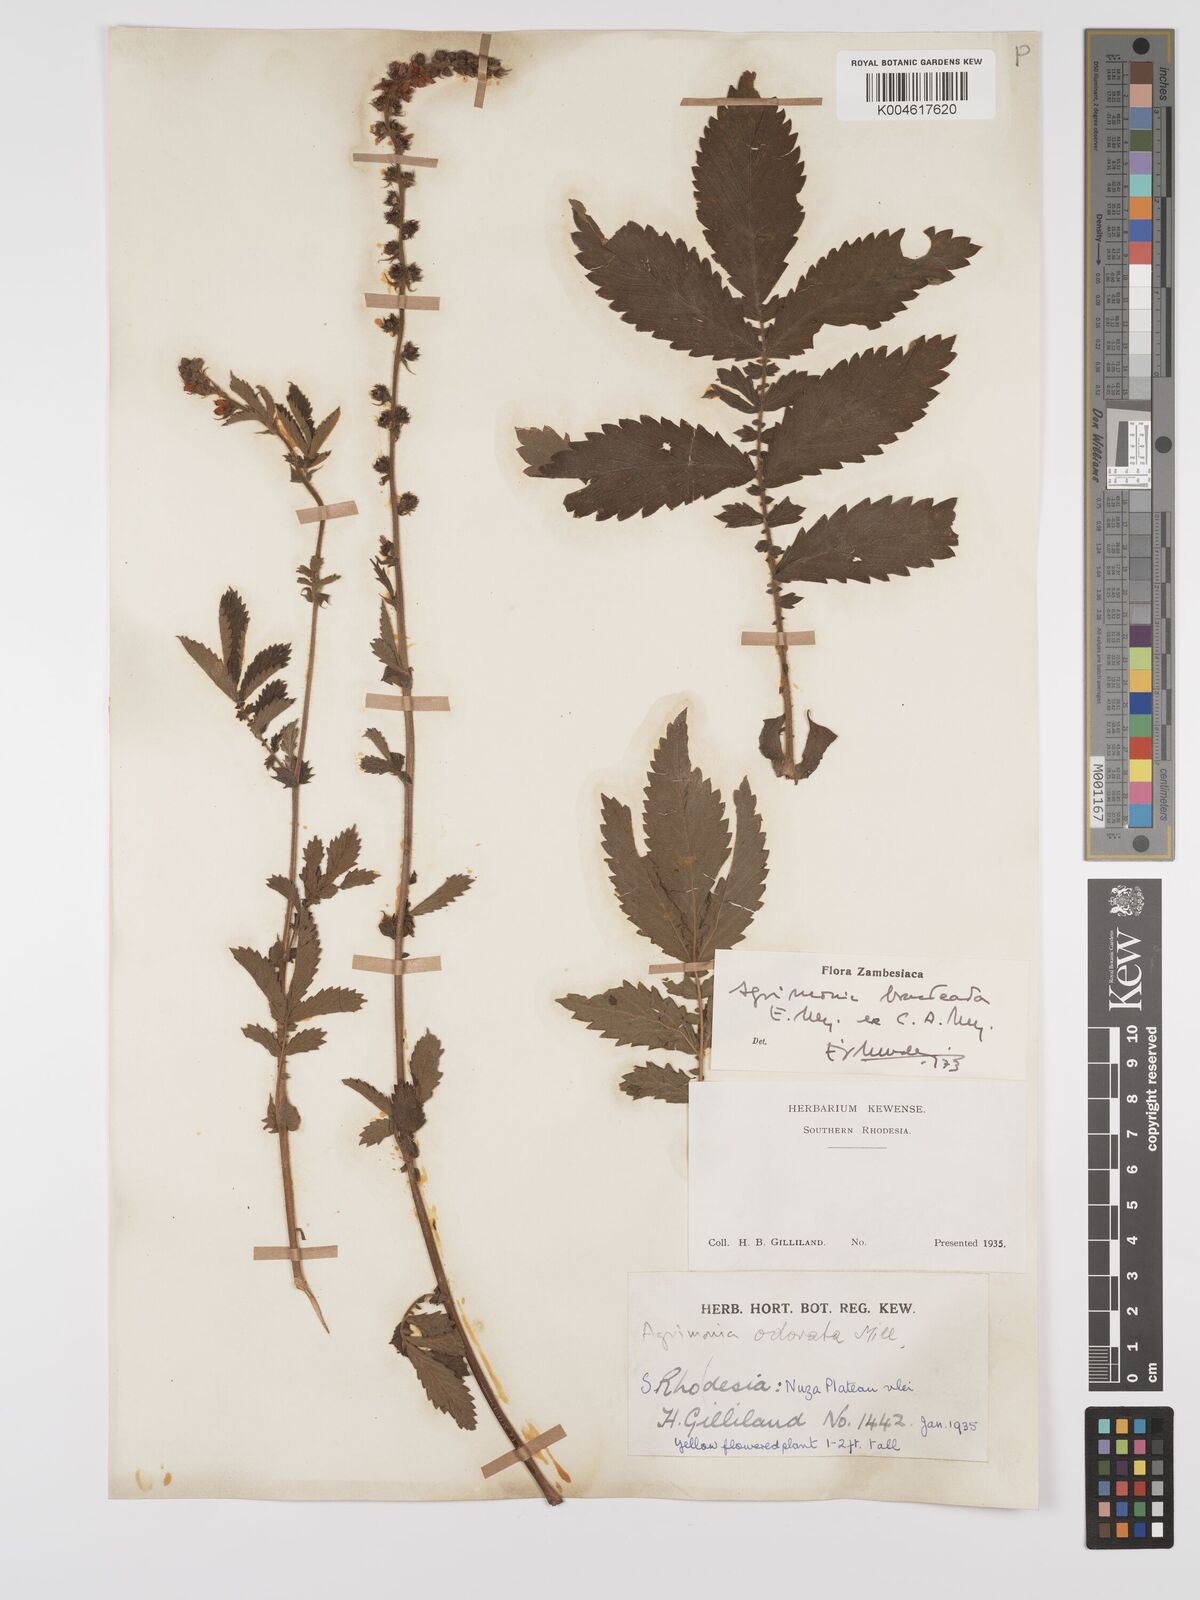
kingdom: Plantae
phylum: Tracheophyta
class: Magnoliopsida
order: Rosales
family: Rosaceae
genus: Agrimonia
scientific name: Agrimonia bracteata
